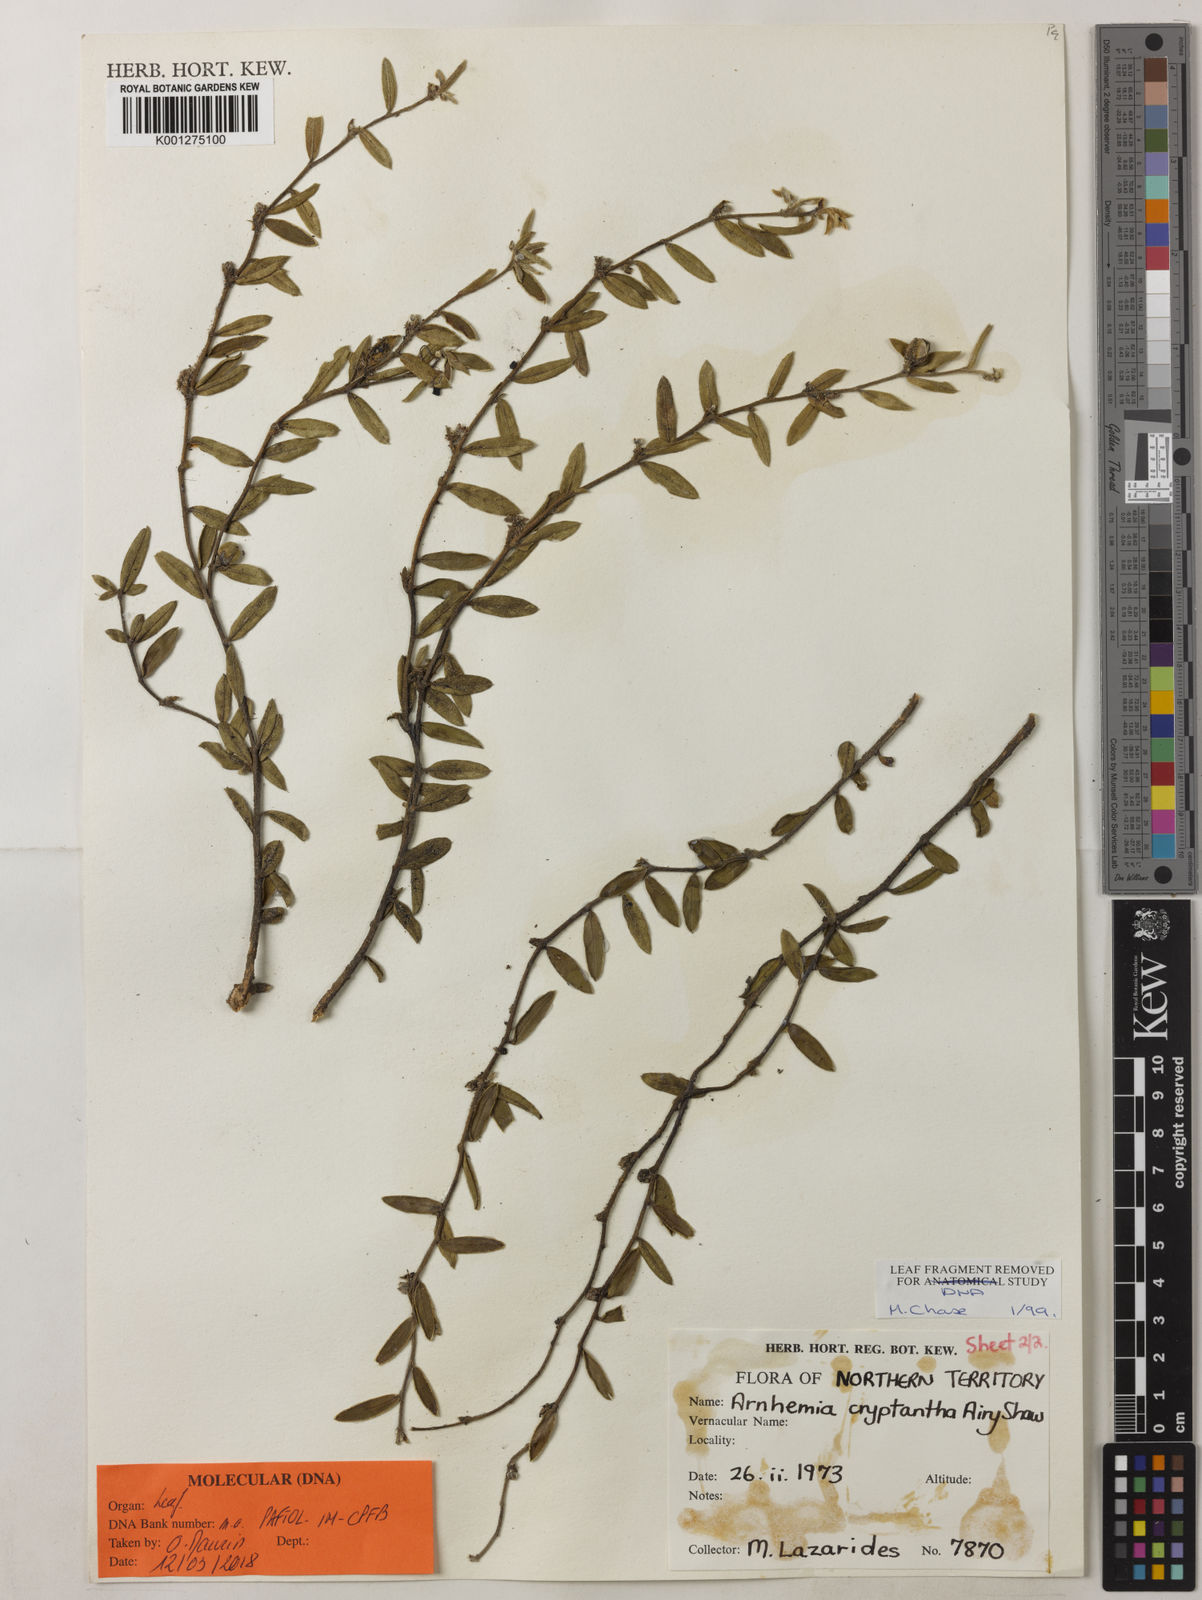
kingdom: Plantae
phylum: Tracheophyta
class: Magnoliopsida
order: Malvales
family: Thymelaeaceae
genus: Arnhemia
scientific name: Arnhemia cryptantha
